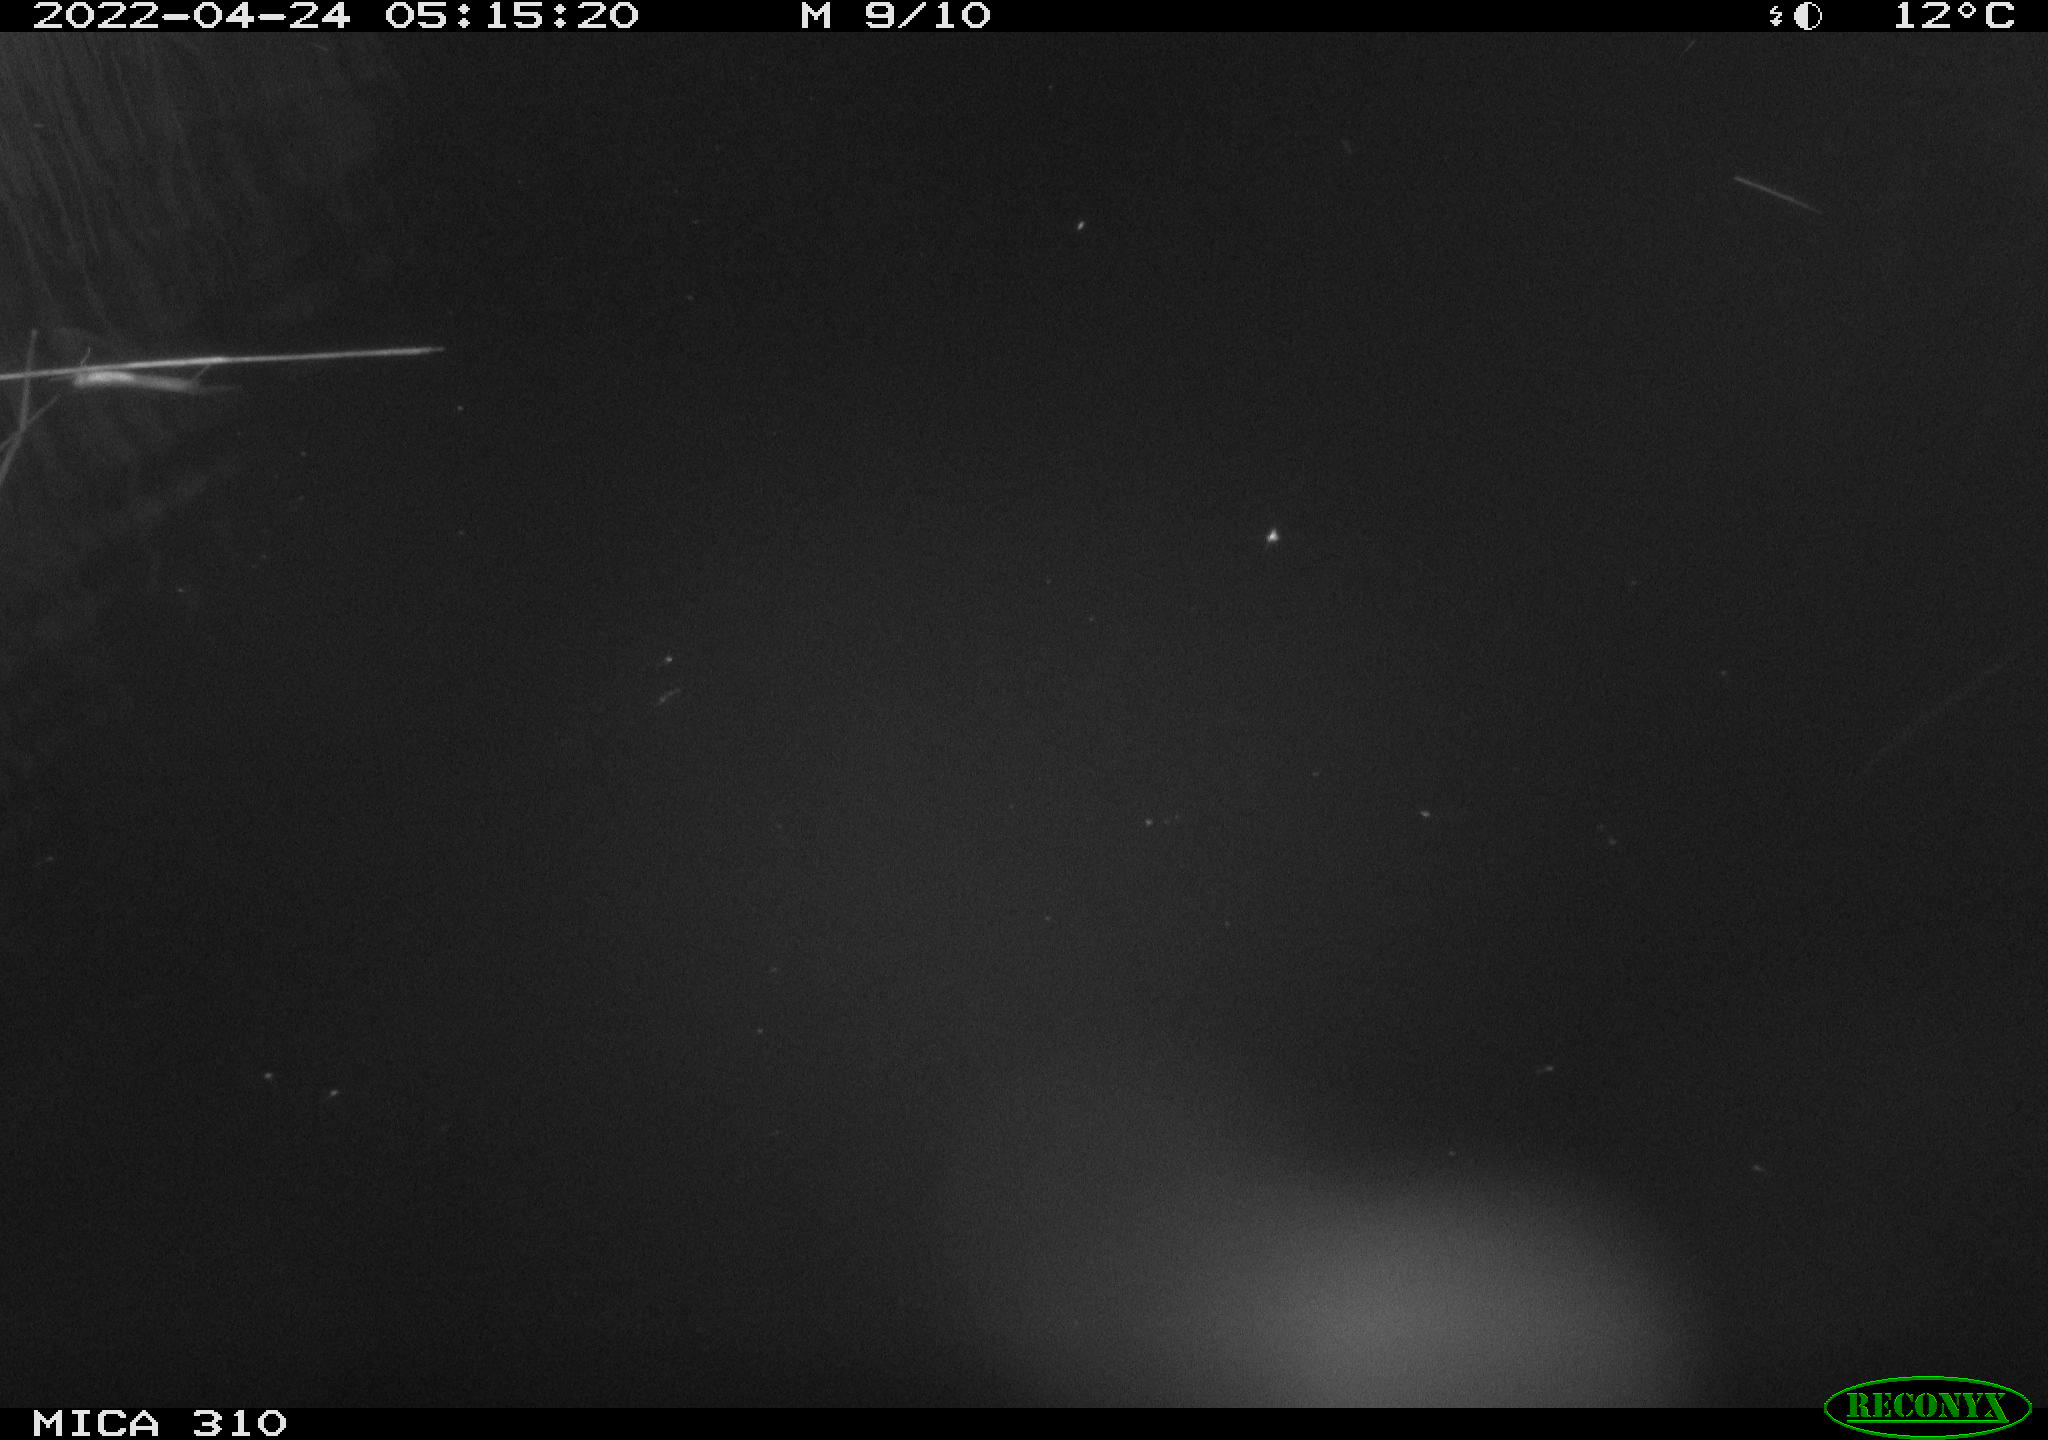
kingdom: Animalia
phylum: Chordata
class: Aves
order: Anseriformes
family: Anatidae
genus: Anas
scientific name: Anas platyrhynchos
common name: Mallard
